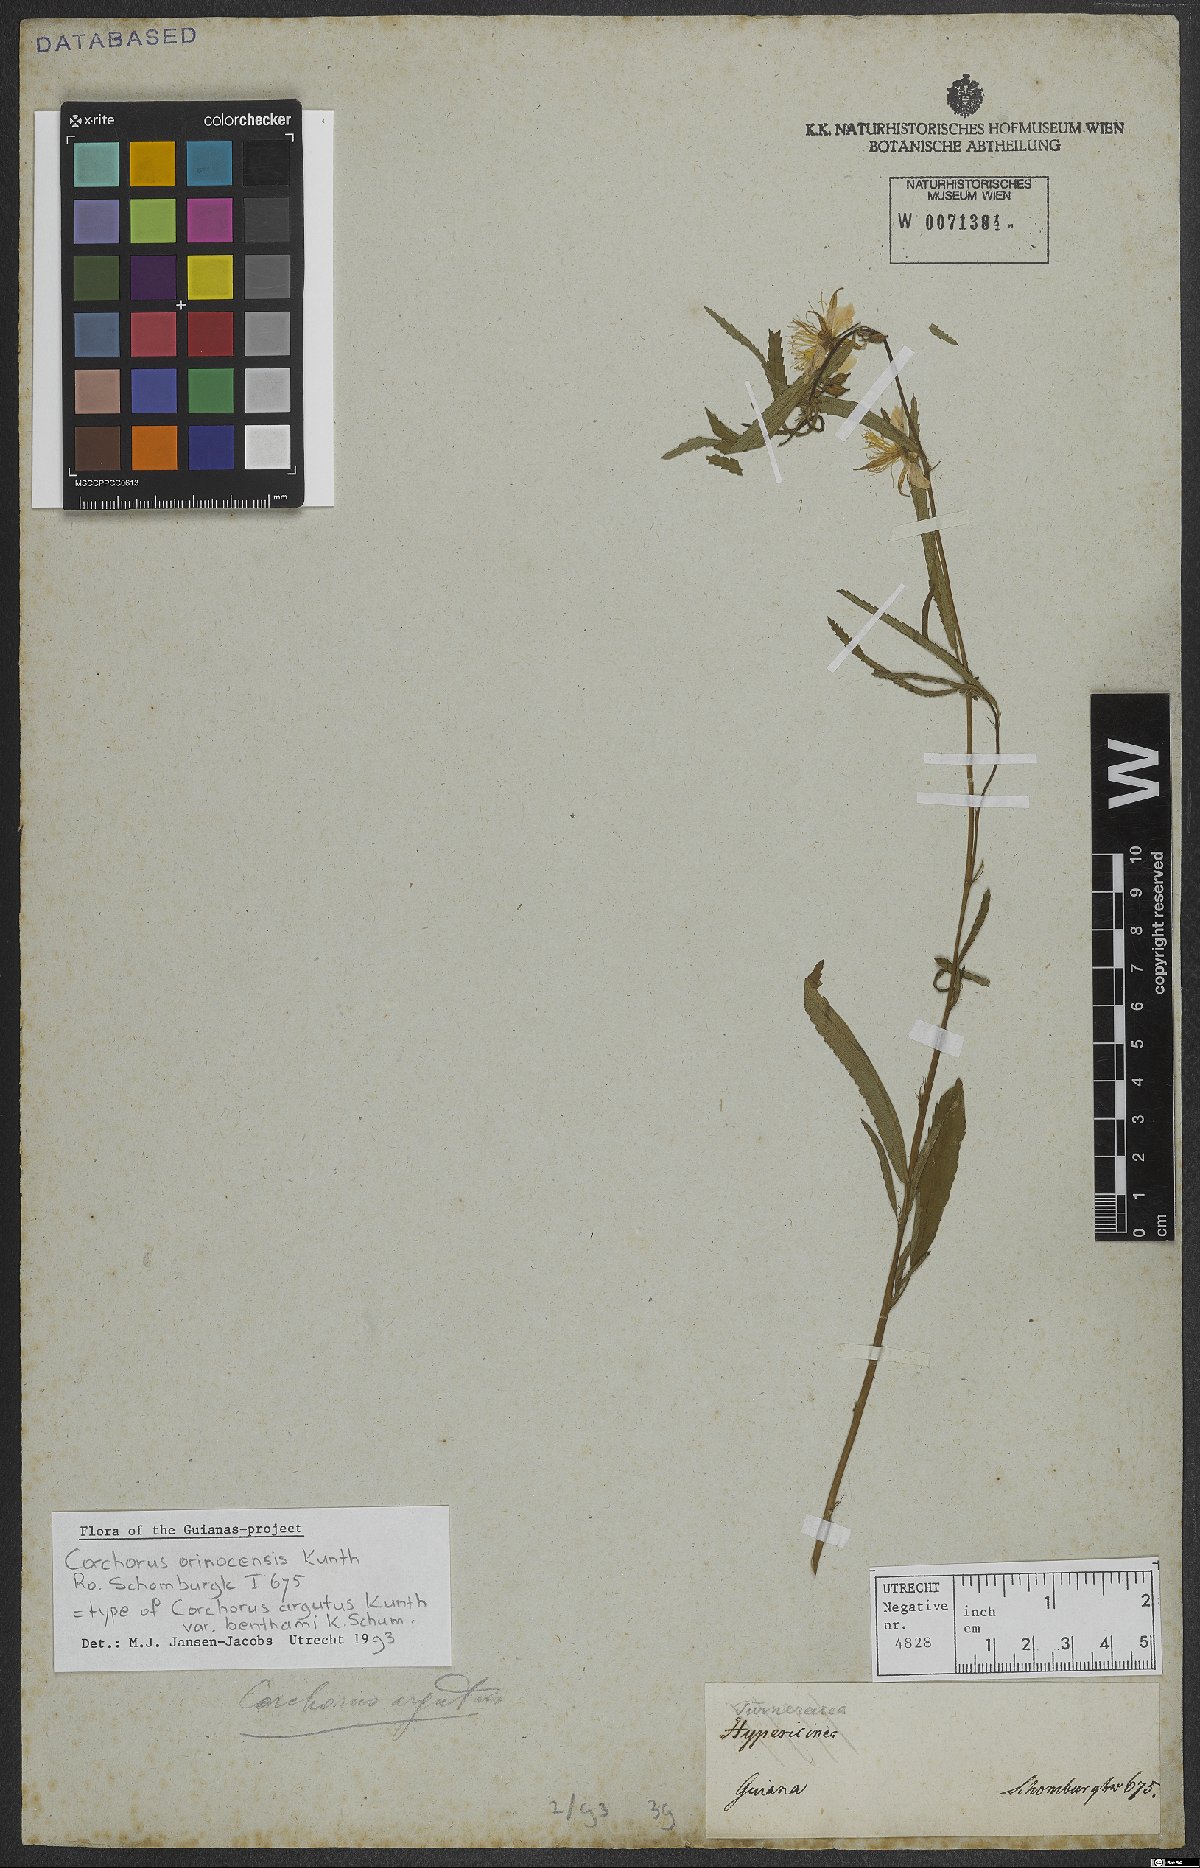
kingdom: Plantae
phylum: Tracheophyta
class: Magnoliopsida
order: Malvales
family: Malvaceae
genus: Corchorus
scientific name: Corchorus orinocensis
